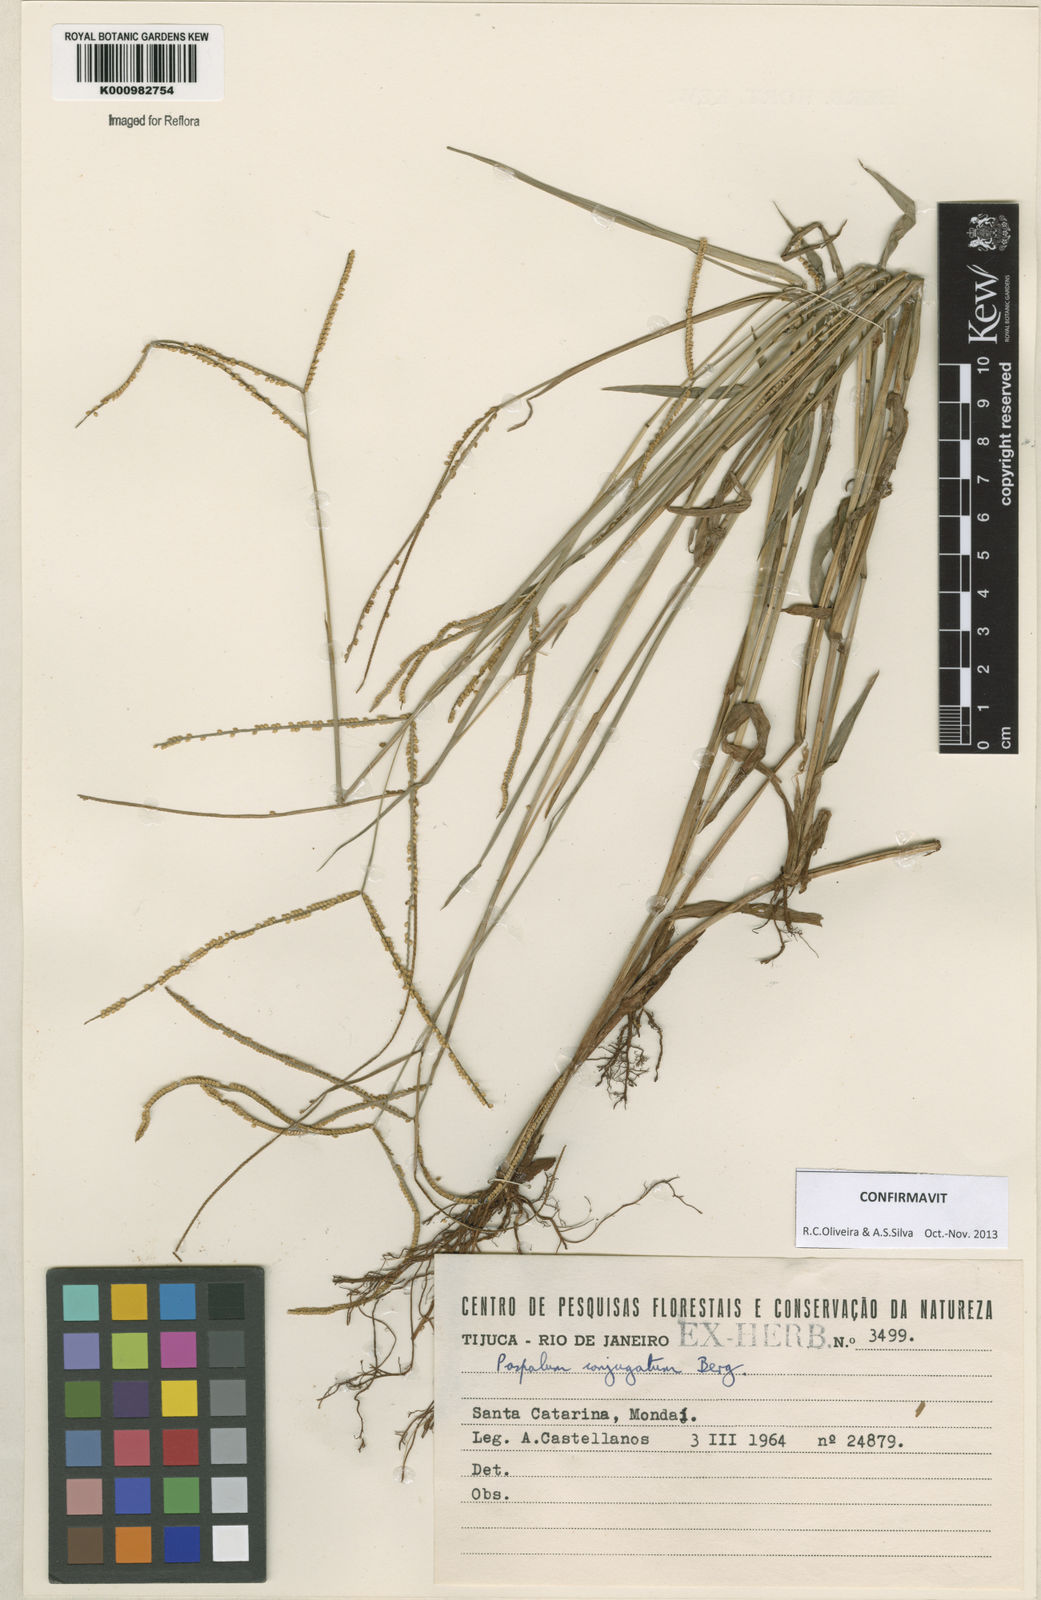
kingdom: Plantae
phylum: Tracheophyta
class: Liliopsida
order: Poales
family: Poaceae
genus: Paspalum
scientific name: Paspalum conjugatum
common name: Hilograss
